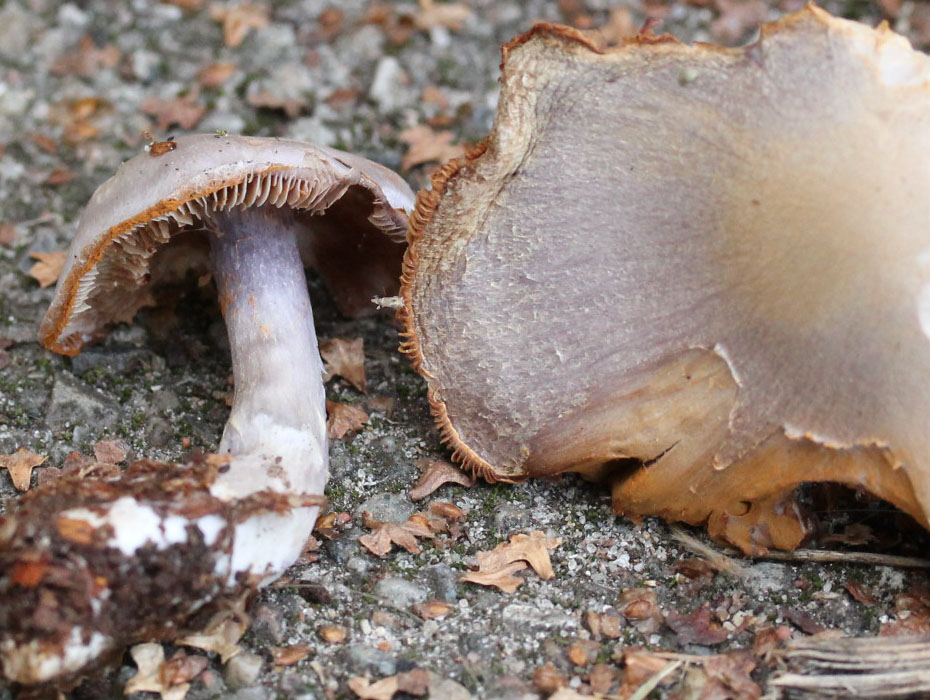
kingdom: Fungi
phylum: Basidiomycota
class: Agaricomycetes
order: Agaricales
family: Cortinariaceae
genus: Cortinarius
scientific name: Cortinarius alboviolaceus
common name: lysviolet slørhat
